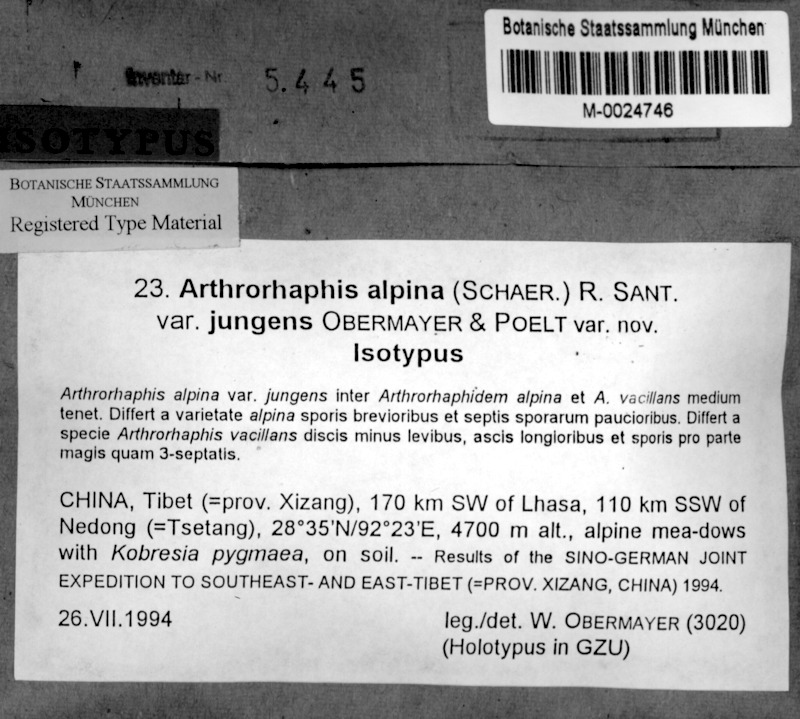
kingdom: Fungi
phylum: Ascomycota
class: Lecanoromycetes
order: Umbilicariales
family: Arthrorhaphidaceae
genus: Arthrorhaphis
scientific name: Arthrorhaphis alpina
